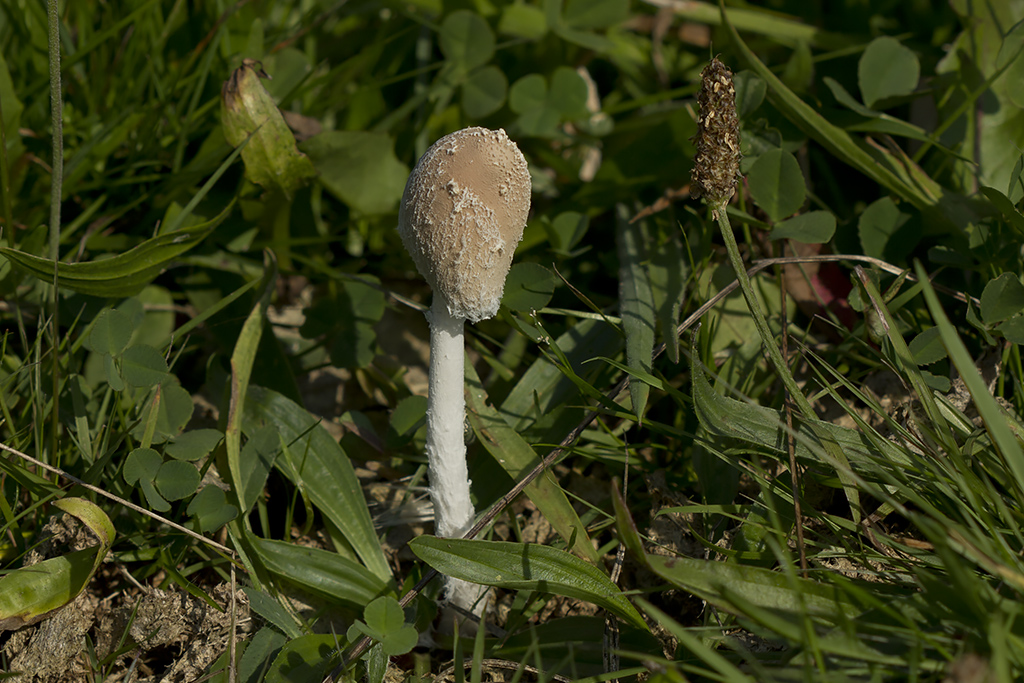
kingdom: Fungi
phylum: Basidiomycota
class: Agaricomycetes
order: Agaricales
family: Psathyrellaceae
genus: Coprinopsis
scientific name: Coprinopsis pseudonivea
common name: pudret blækhat
